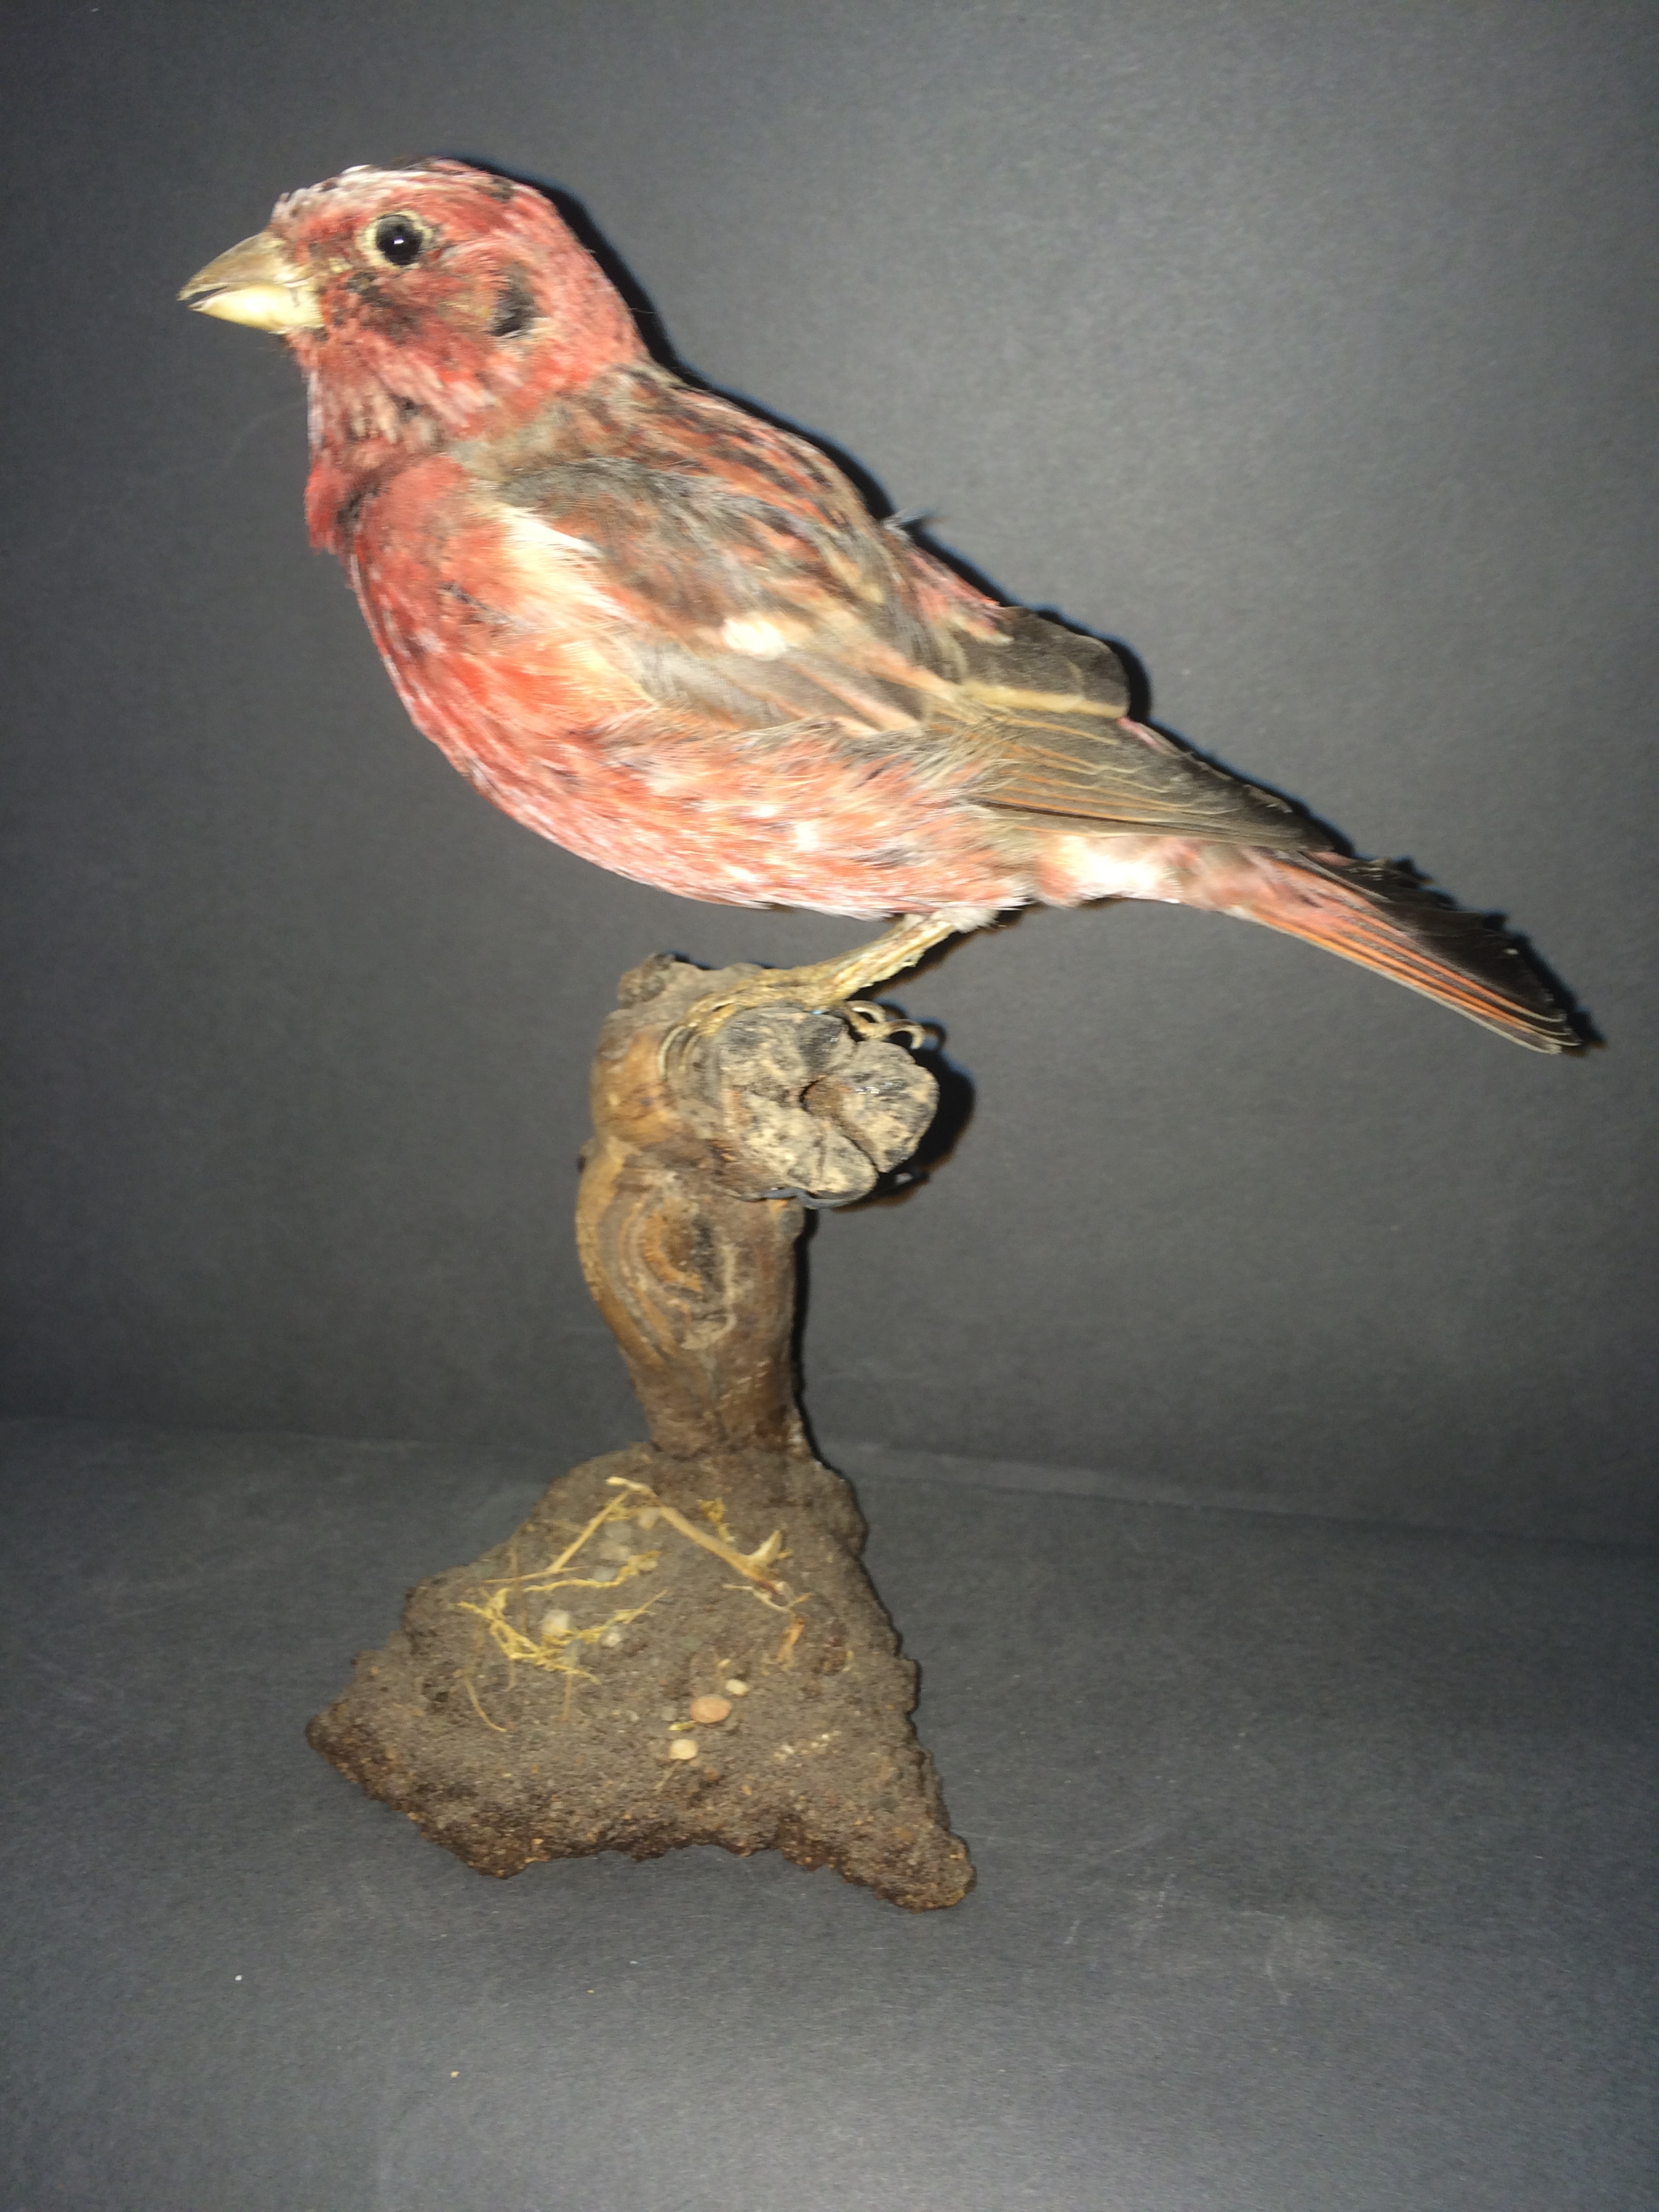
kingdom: Animalia
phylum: Chordata
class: Aves
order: Passeriformes
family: Fringillidae
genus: Carpodacus
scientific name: Carpodacus roseus
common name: Pallas's rosefinch
